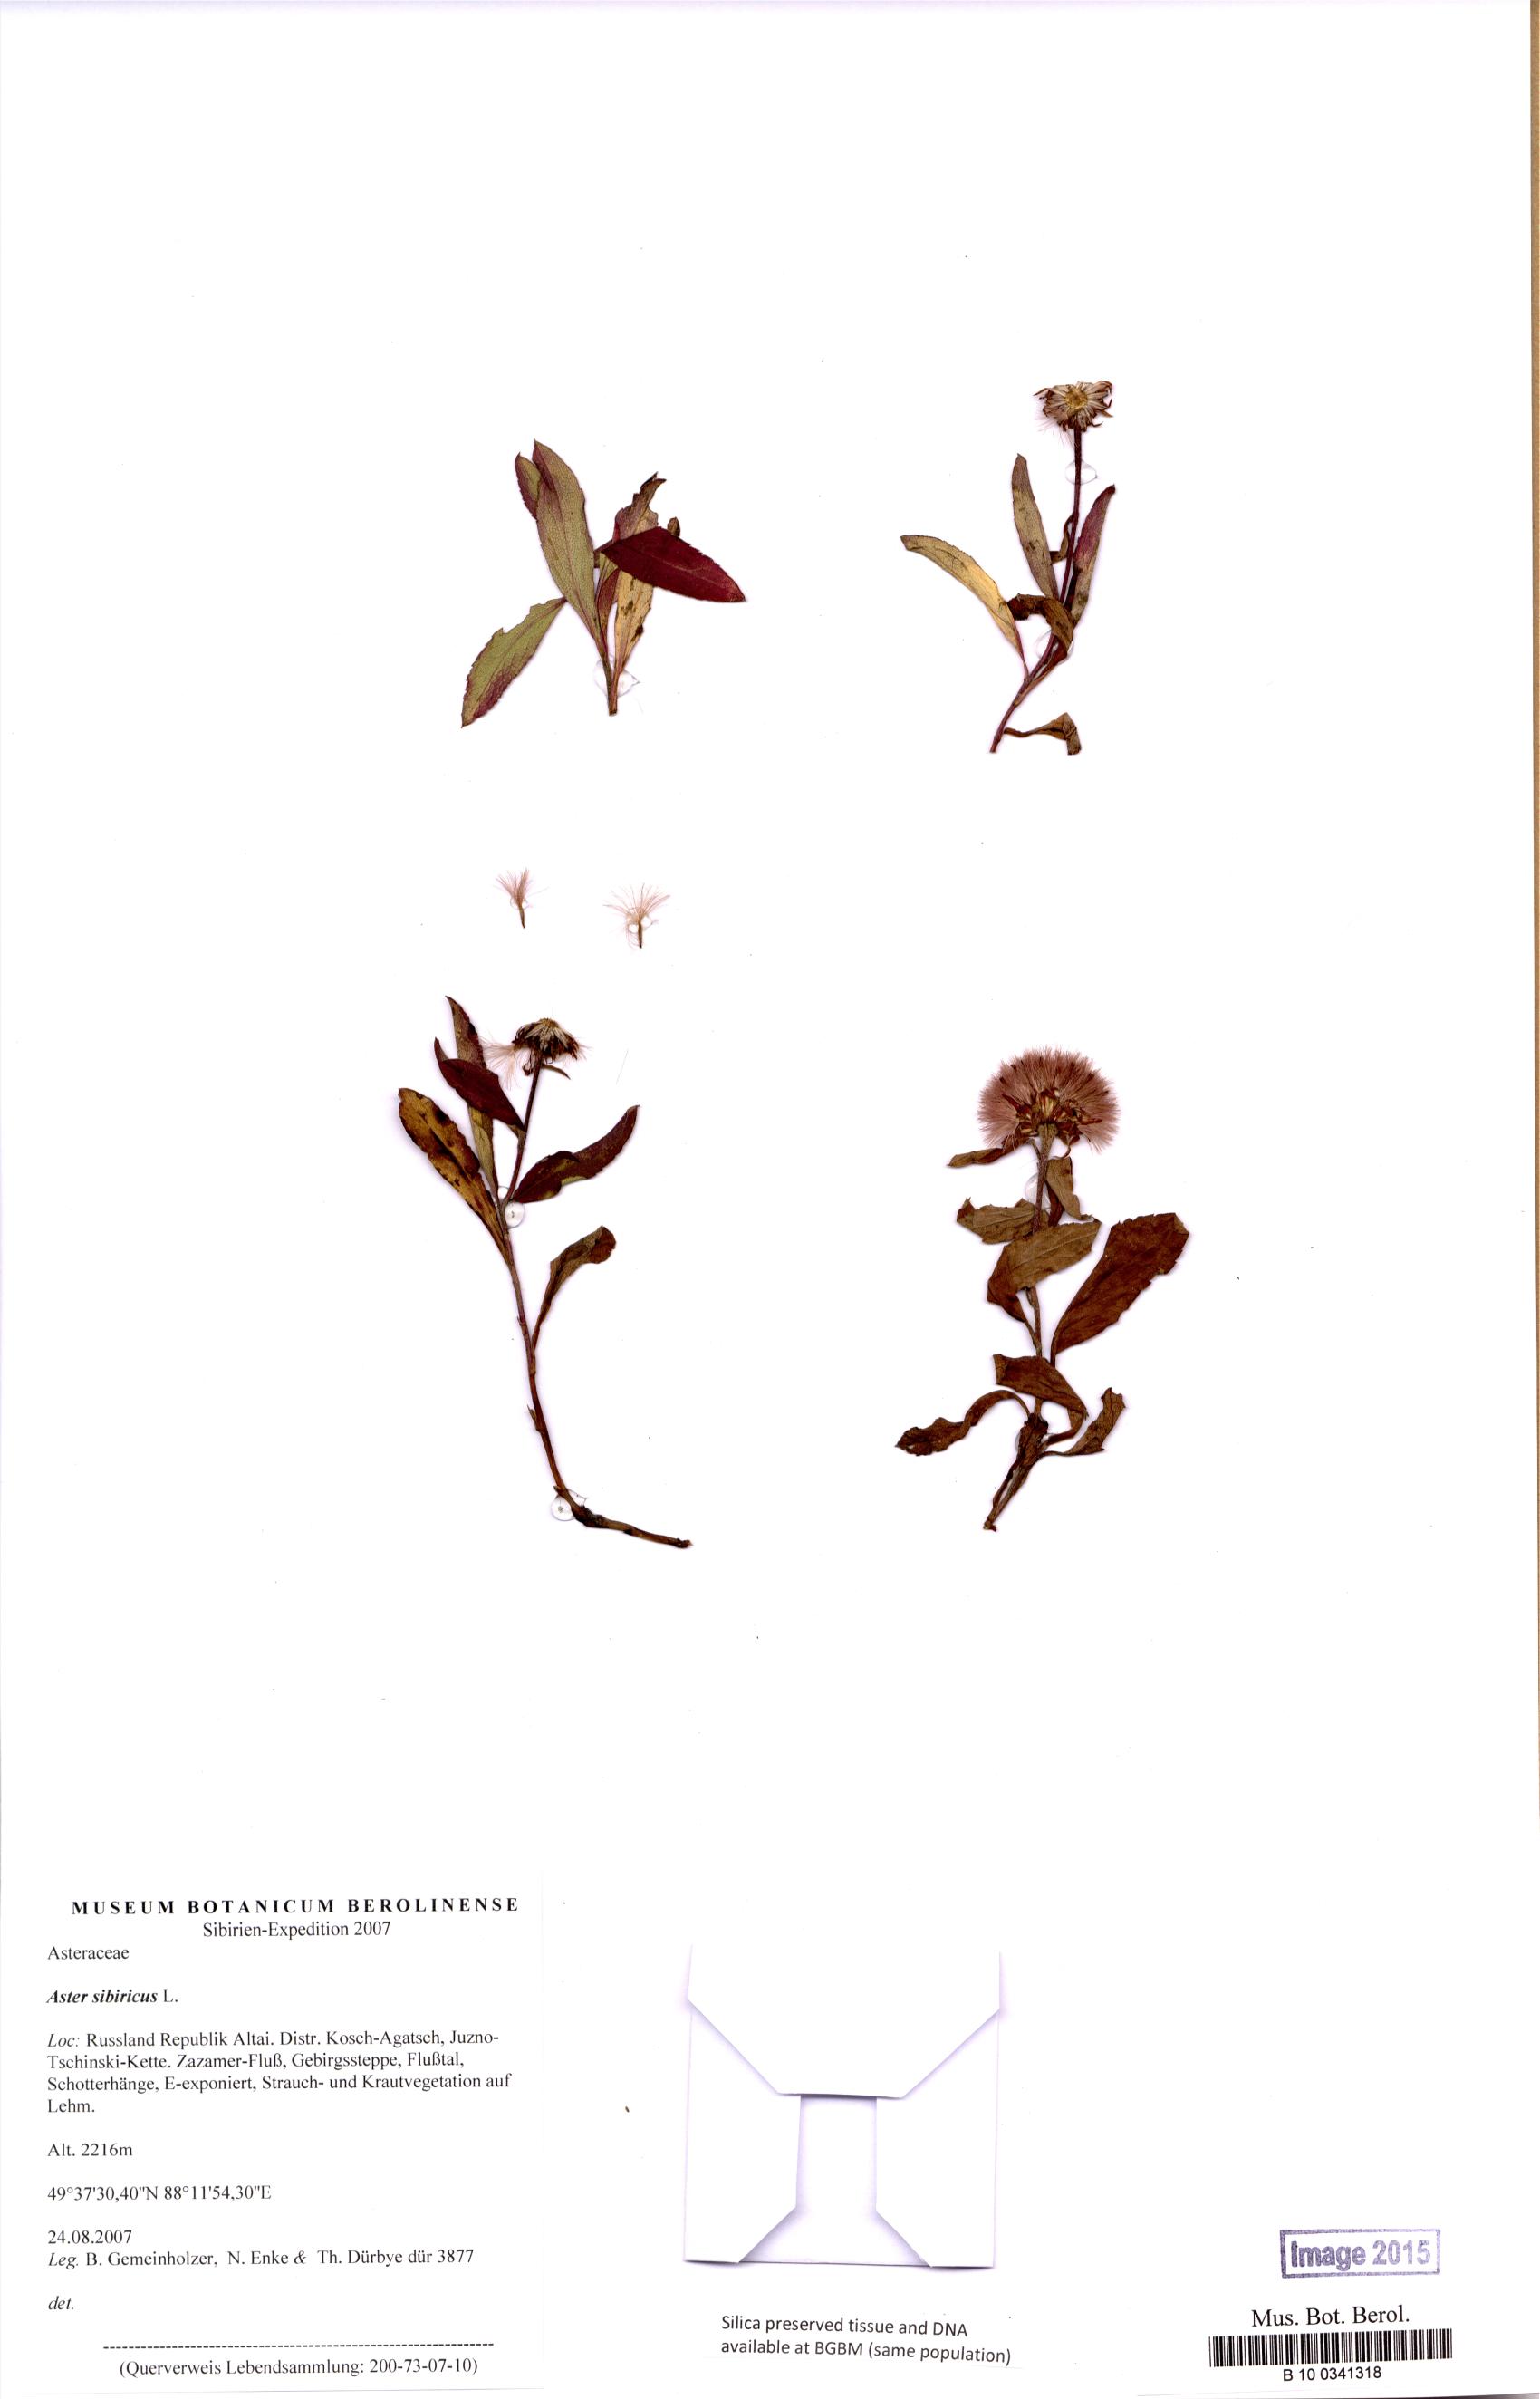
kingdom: Plantae
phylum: Tracheophyta
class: Magnoliopsida
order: Asterales
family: Asteraceae
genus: Eurybia
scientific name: Eurybia sibirica
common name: Arctic aster
